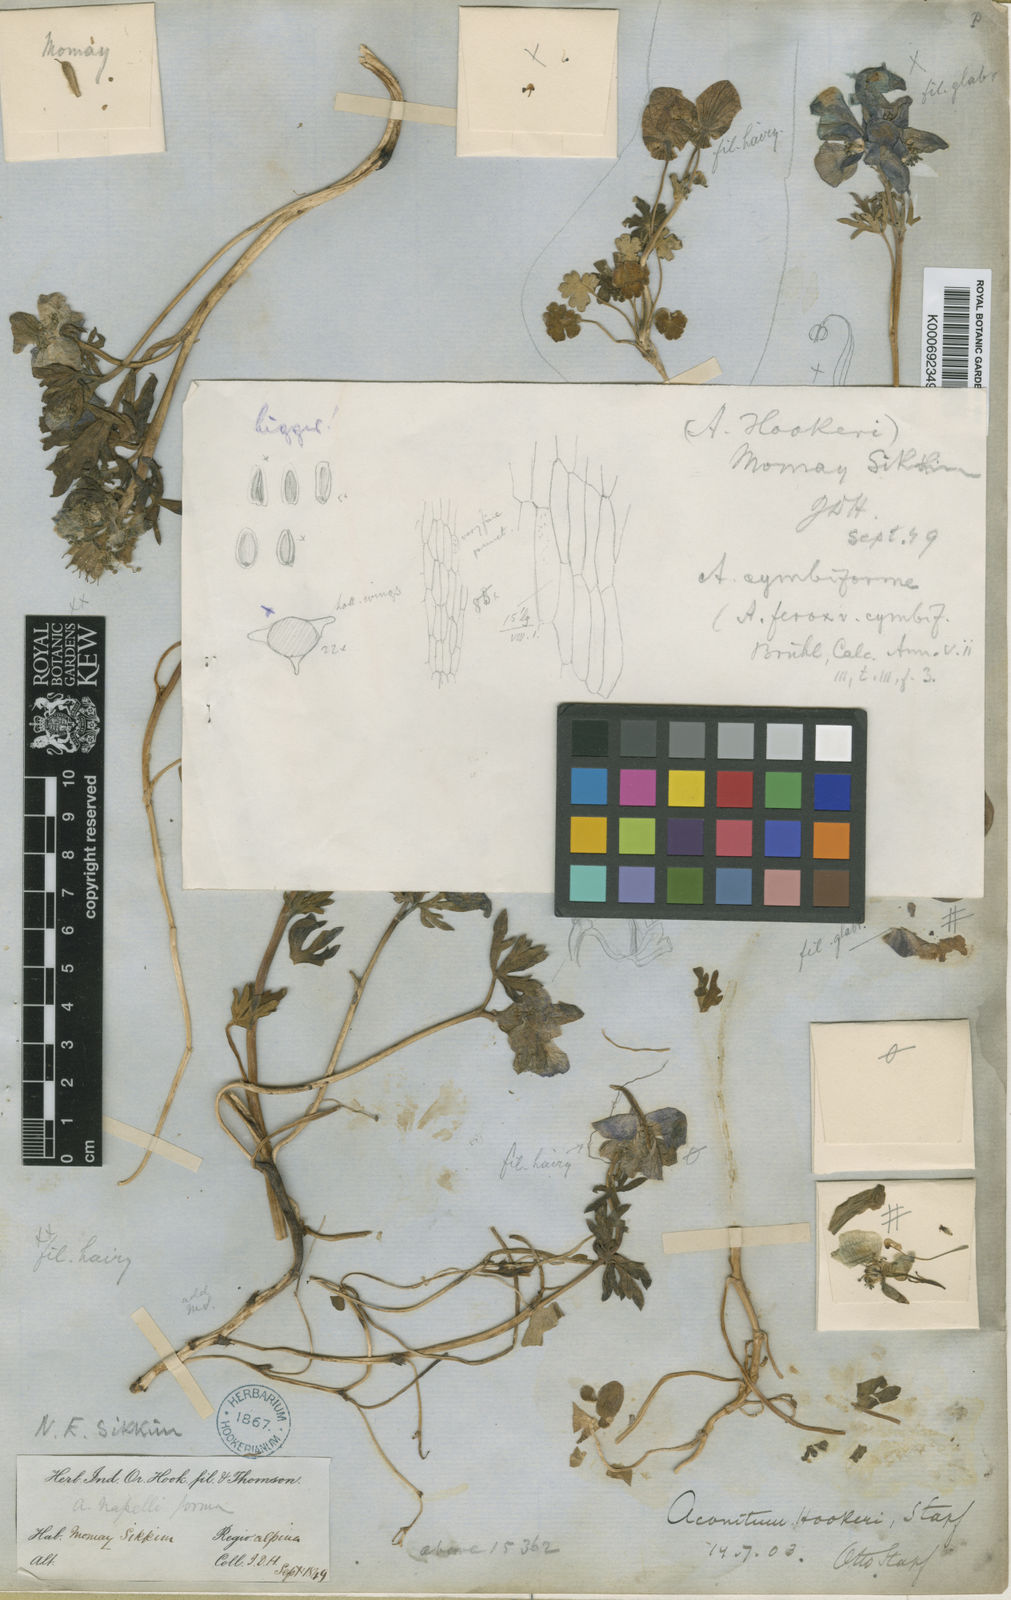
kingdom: Plantae
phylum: Tracheophyta
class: Magnoliopsida
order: Ranunculales
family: Ranunculaceae
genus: Aconitum
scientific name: Aconitum hookeri
